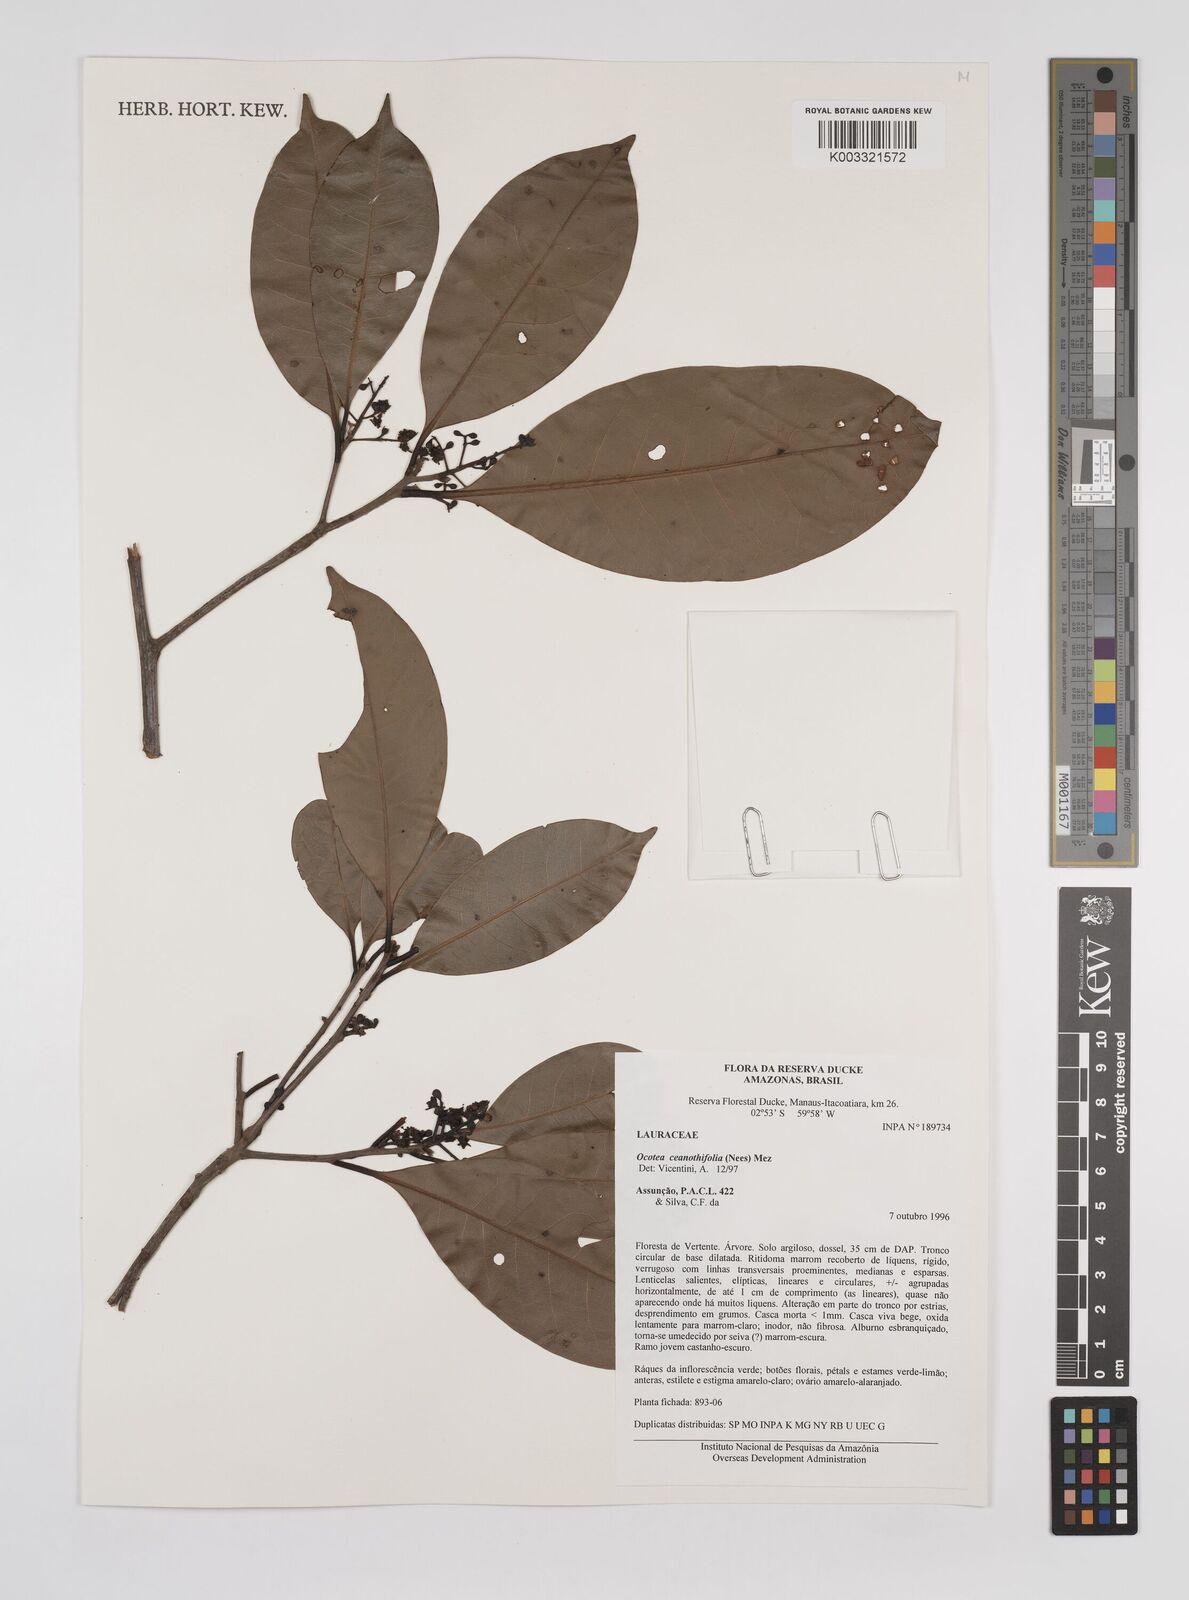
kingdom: Plantae
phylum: Tracheophyta
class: Magnoliopsida
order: Laurales
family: Lauraceae
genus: Mespilodaphne
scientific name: Mespilodaphne ceanothifolia
